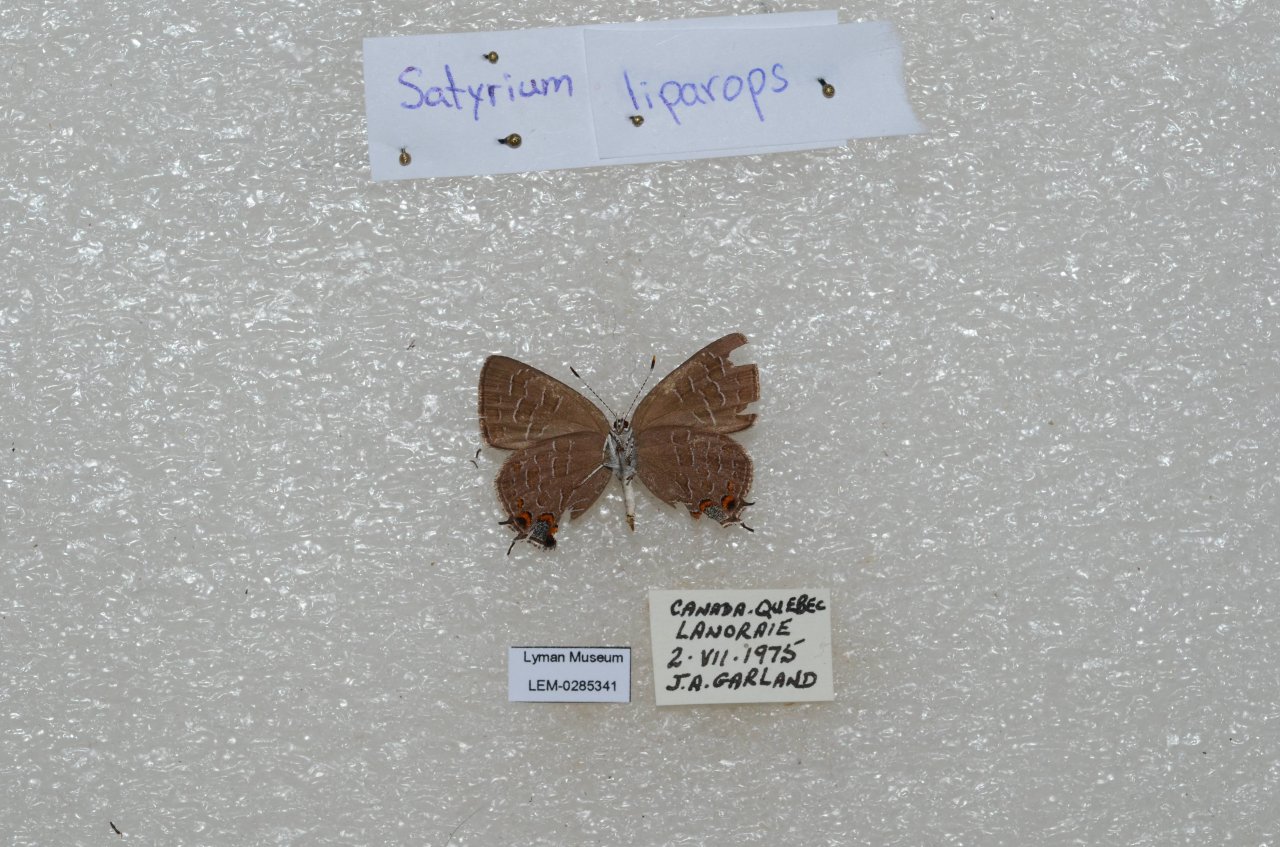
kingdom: Animalia
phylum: Arthropoda
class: Insecta
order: Lepidoptera
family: Lycaenidae
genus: Satyrium
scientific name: Satyrium liparops
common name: Striped Hairstreak
